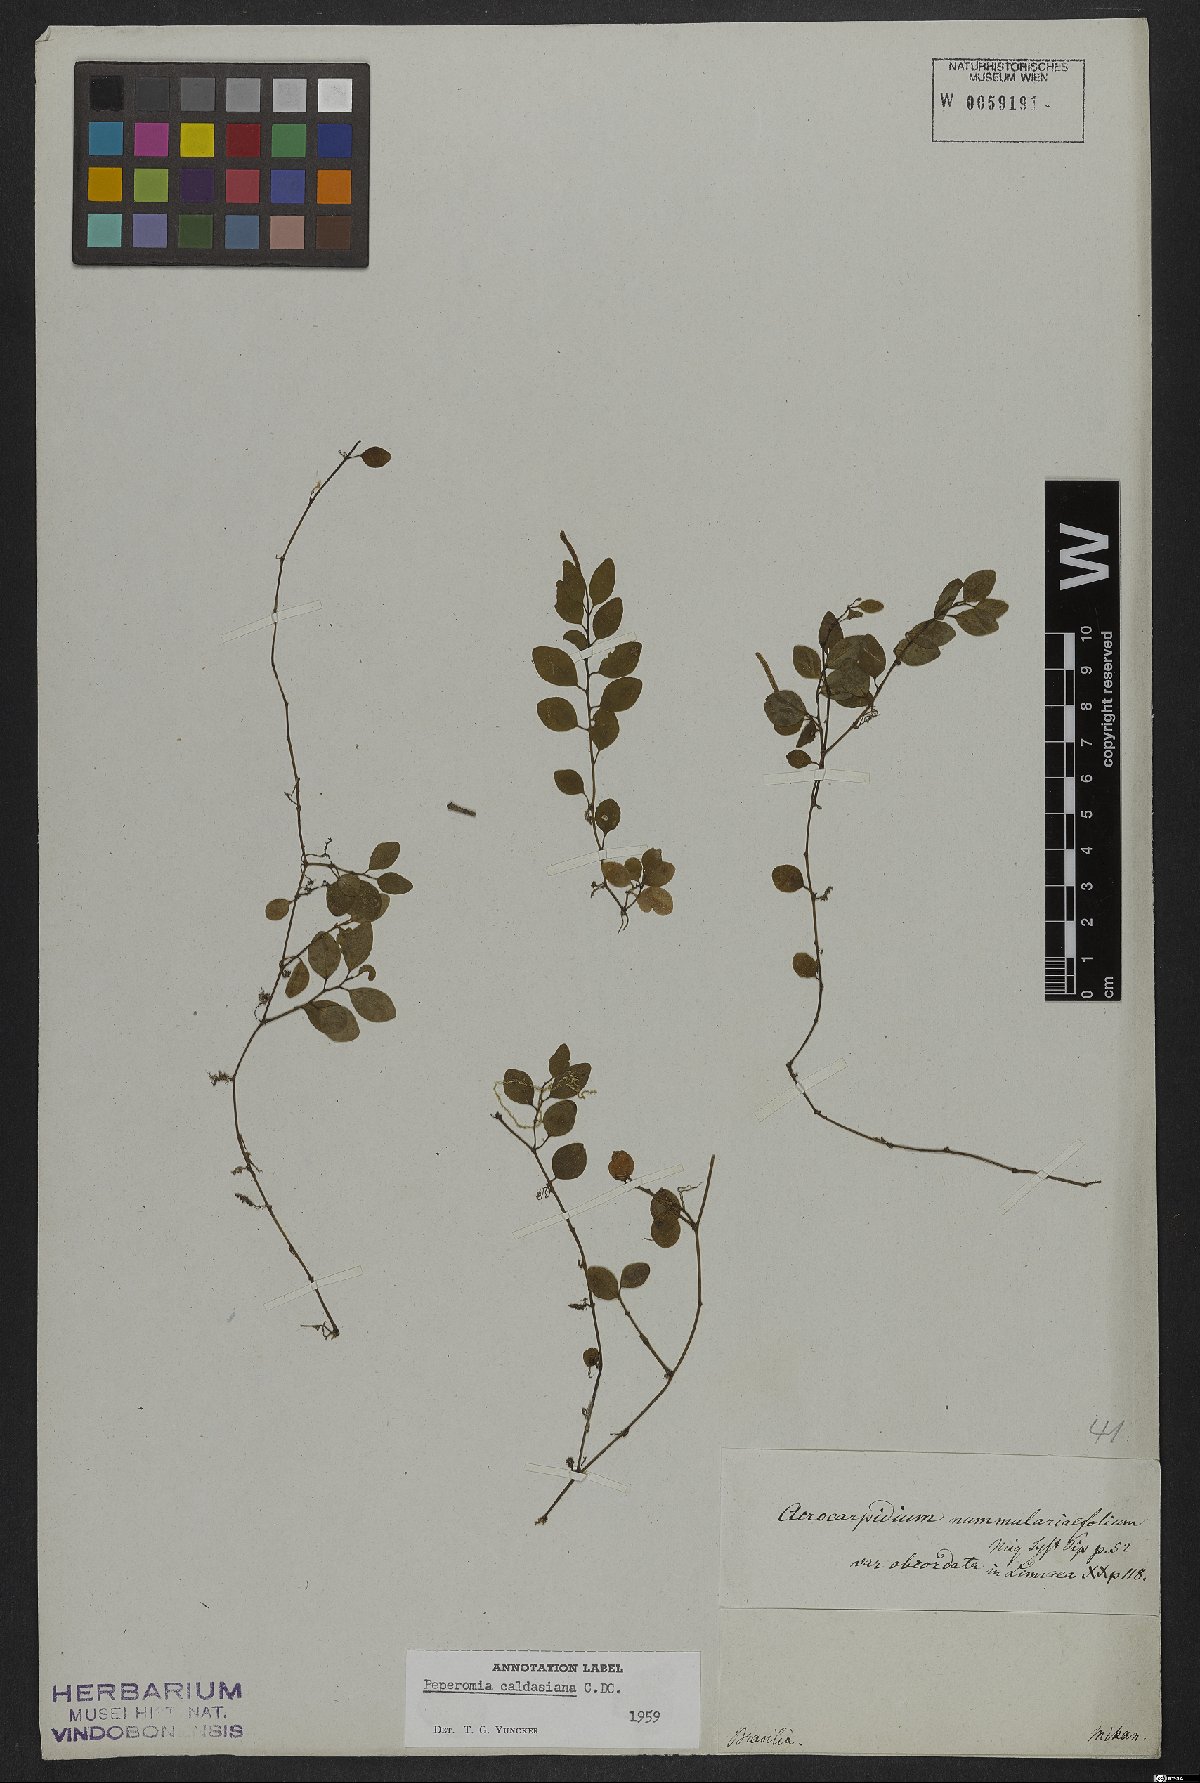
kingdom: Plantae
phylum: Tracheophyta
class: Magnoliopsida
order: Piperales
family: Piperaceae
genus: Peperomia
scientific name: Peperomia corcovadensis
